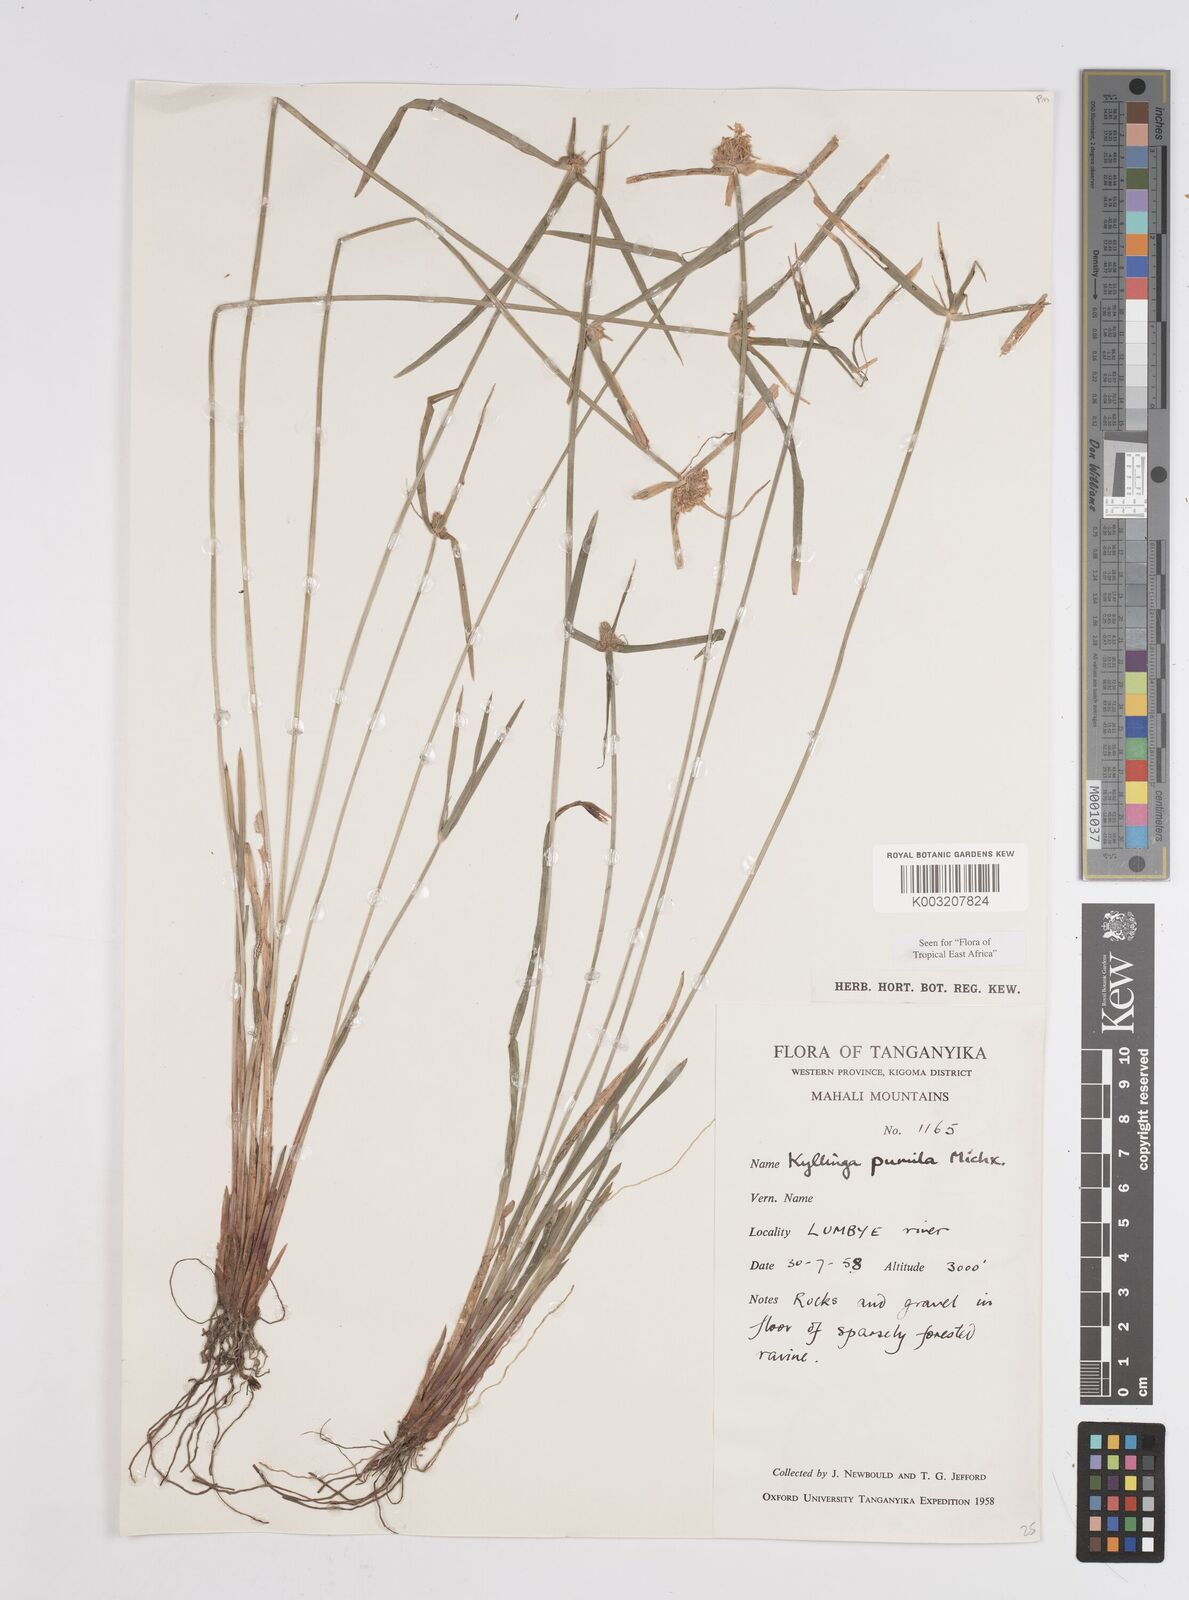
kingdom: Plantae
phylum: Tracheophyta
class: Liliopsida
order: Poales
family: Cyperaceae
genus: Cyperus
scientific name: Cyperus hortensis
